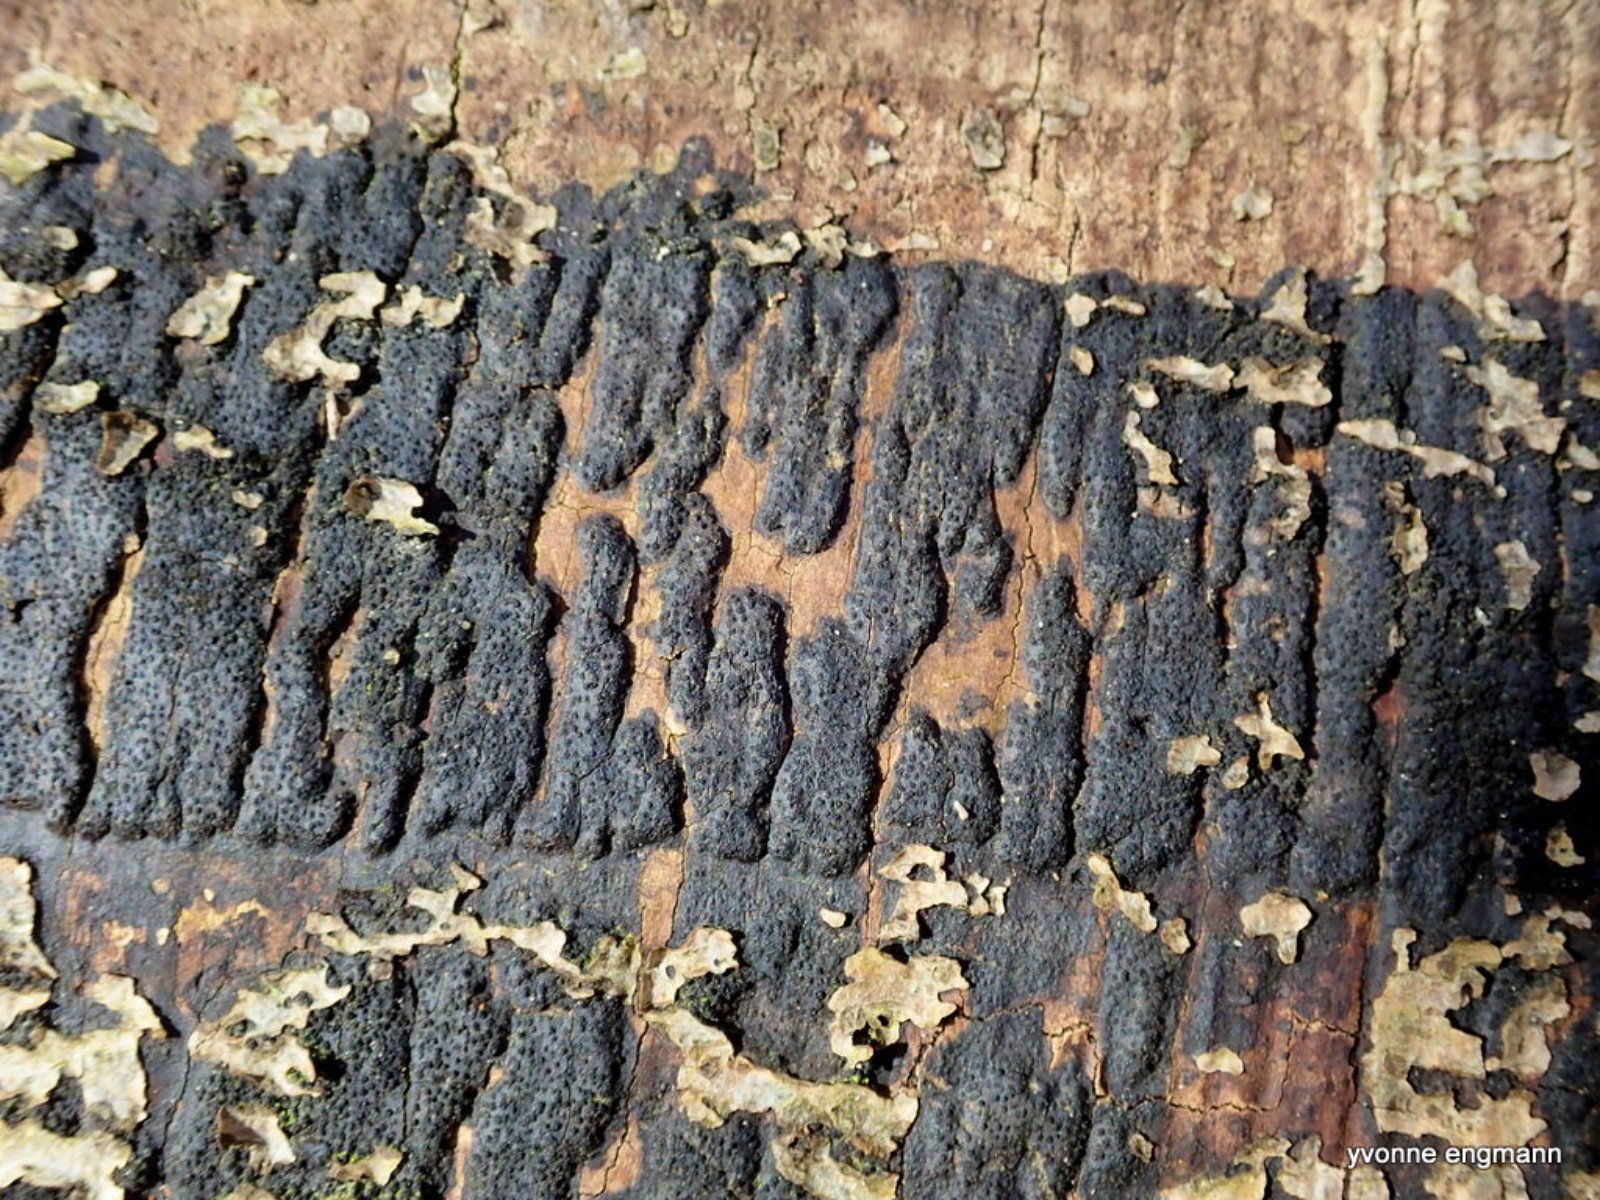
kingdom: Fungi
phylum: Ascomycota
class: Sordariomycetes
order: Xylariales
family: Diatrypaceae
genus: Eutypa
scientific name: Eutypa spinosa
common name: grov kulskorpe
